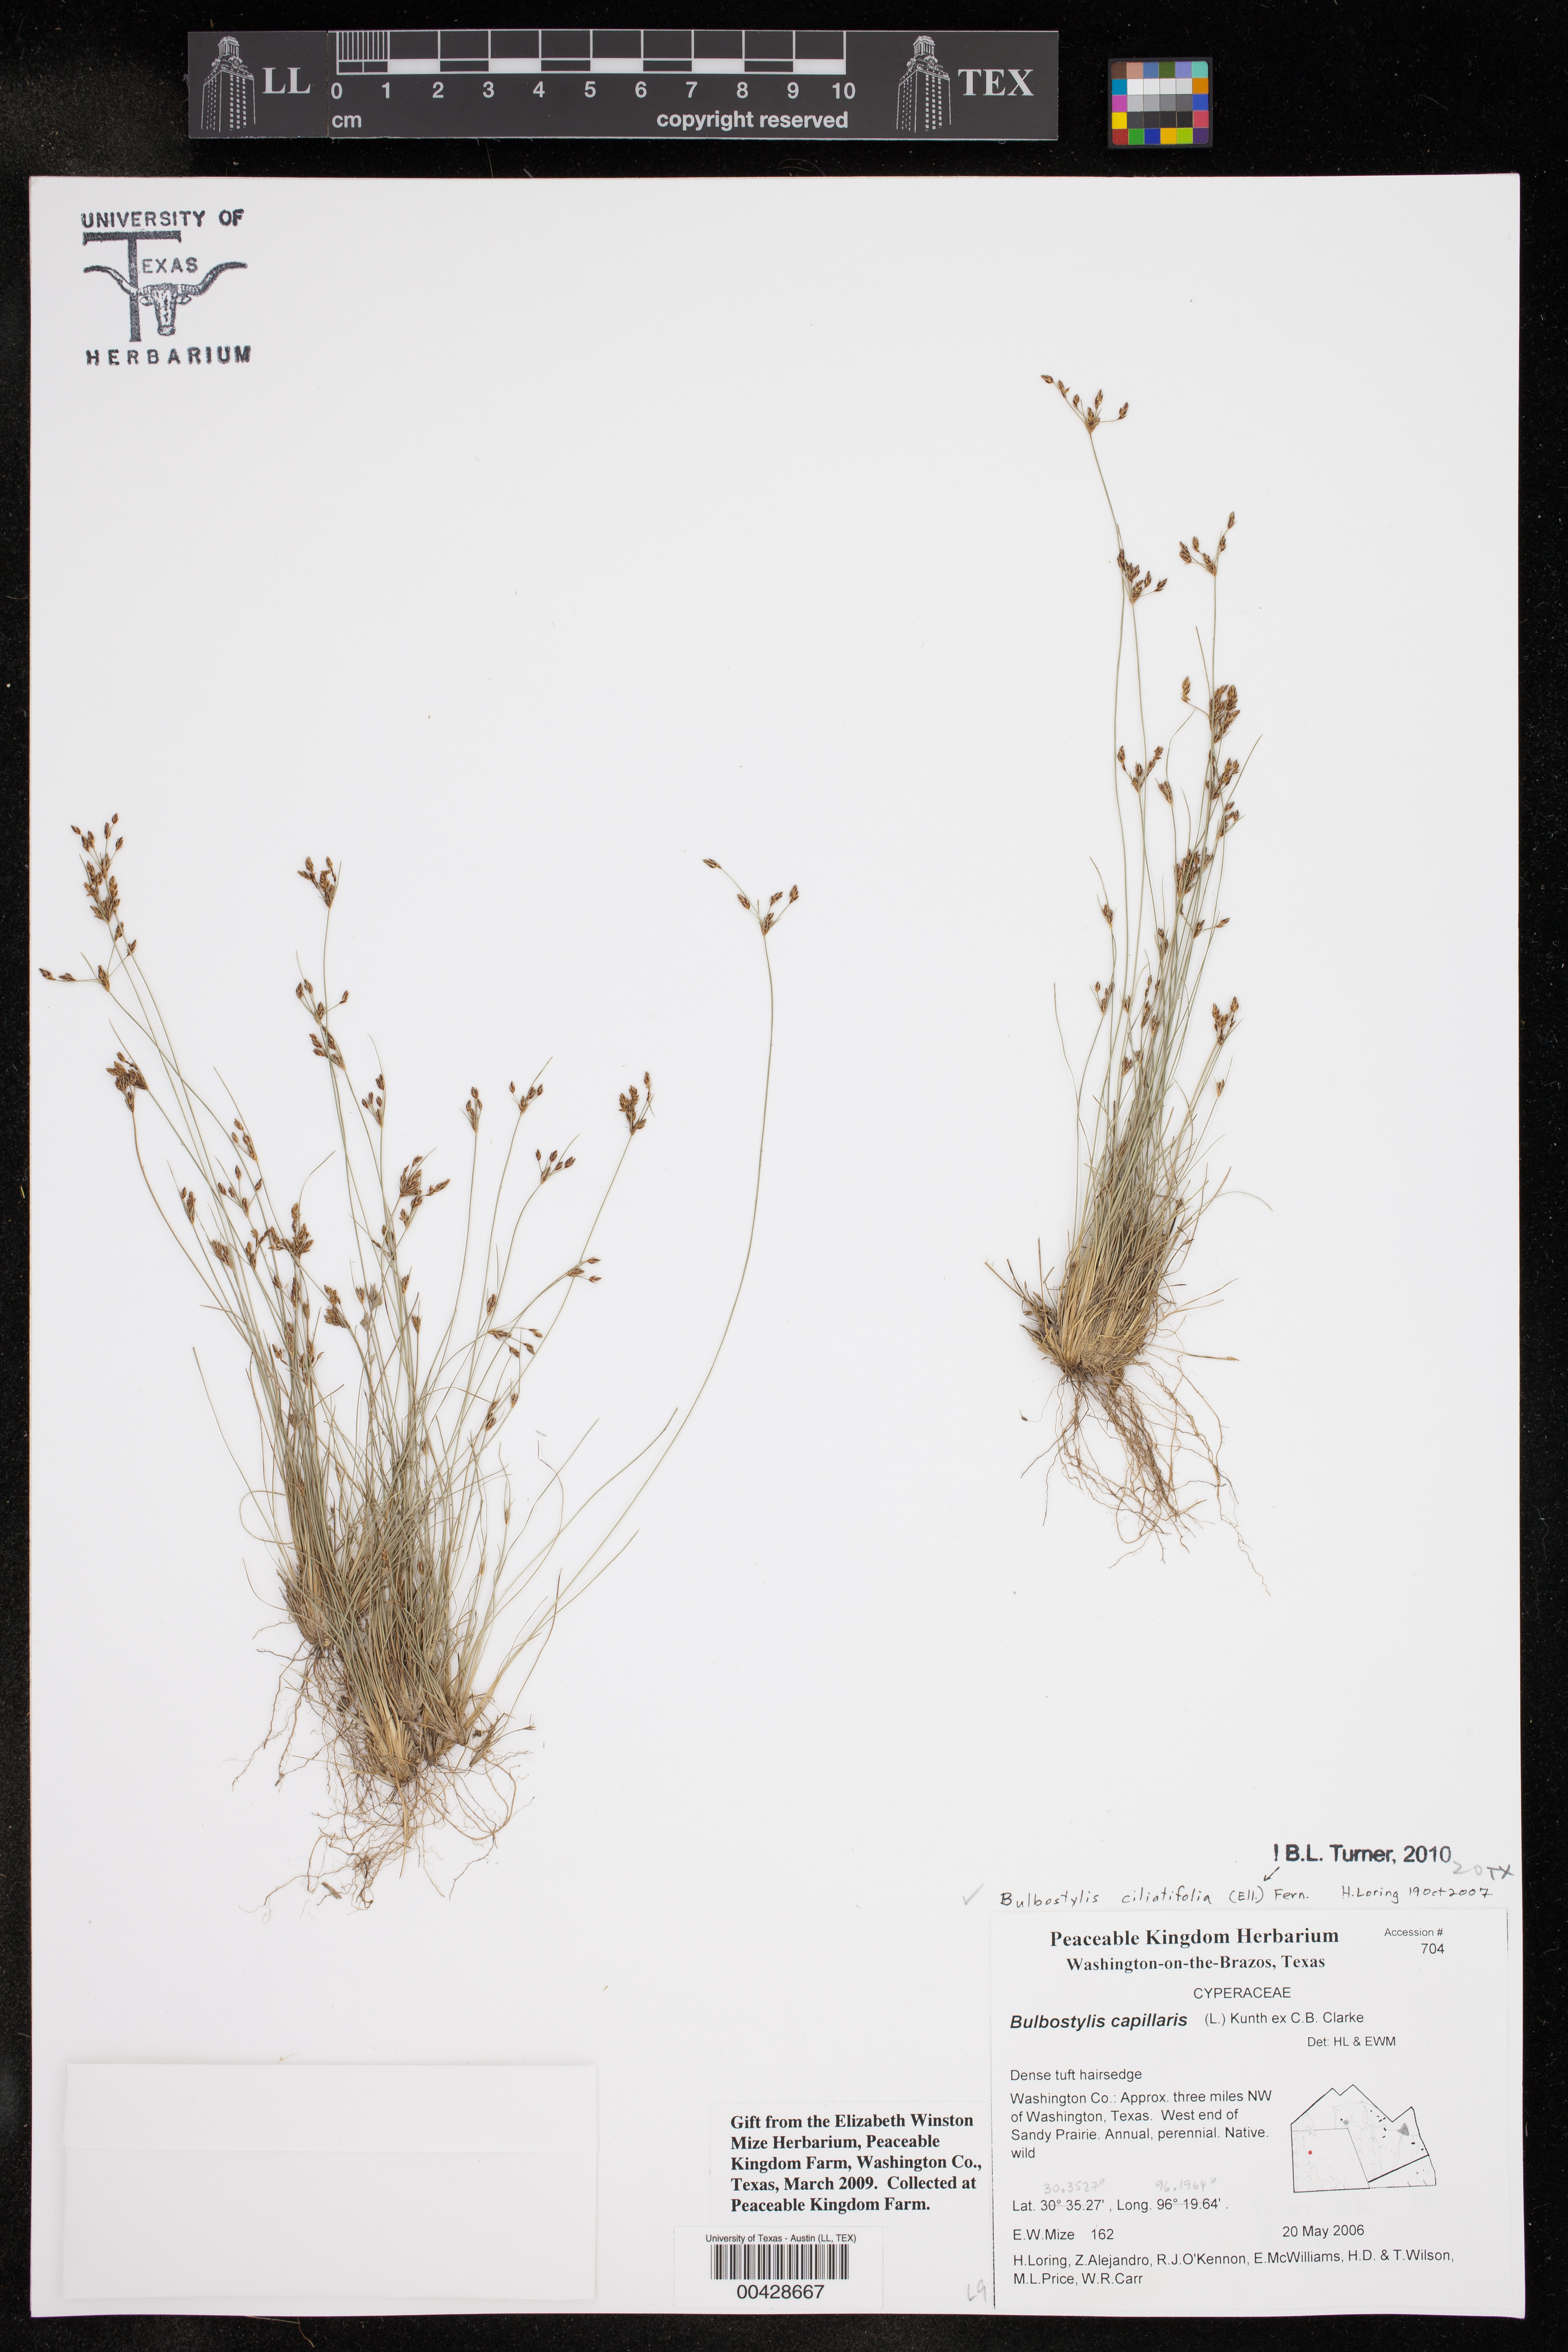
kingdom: Plantae
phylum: Tracheophyta
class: Liliopsida
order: Poales
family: Cyperaceae
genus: Bulbostylis
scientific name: Bulbostylis ciliatifolia
